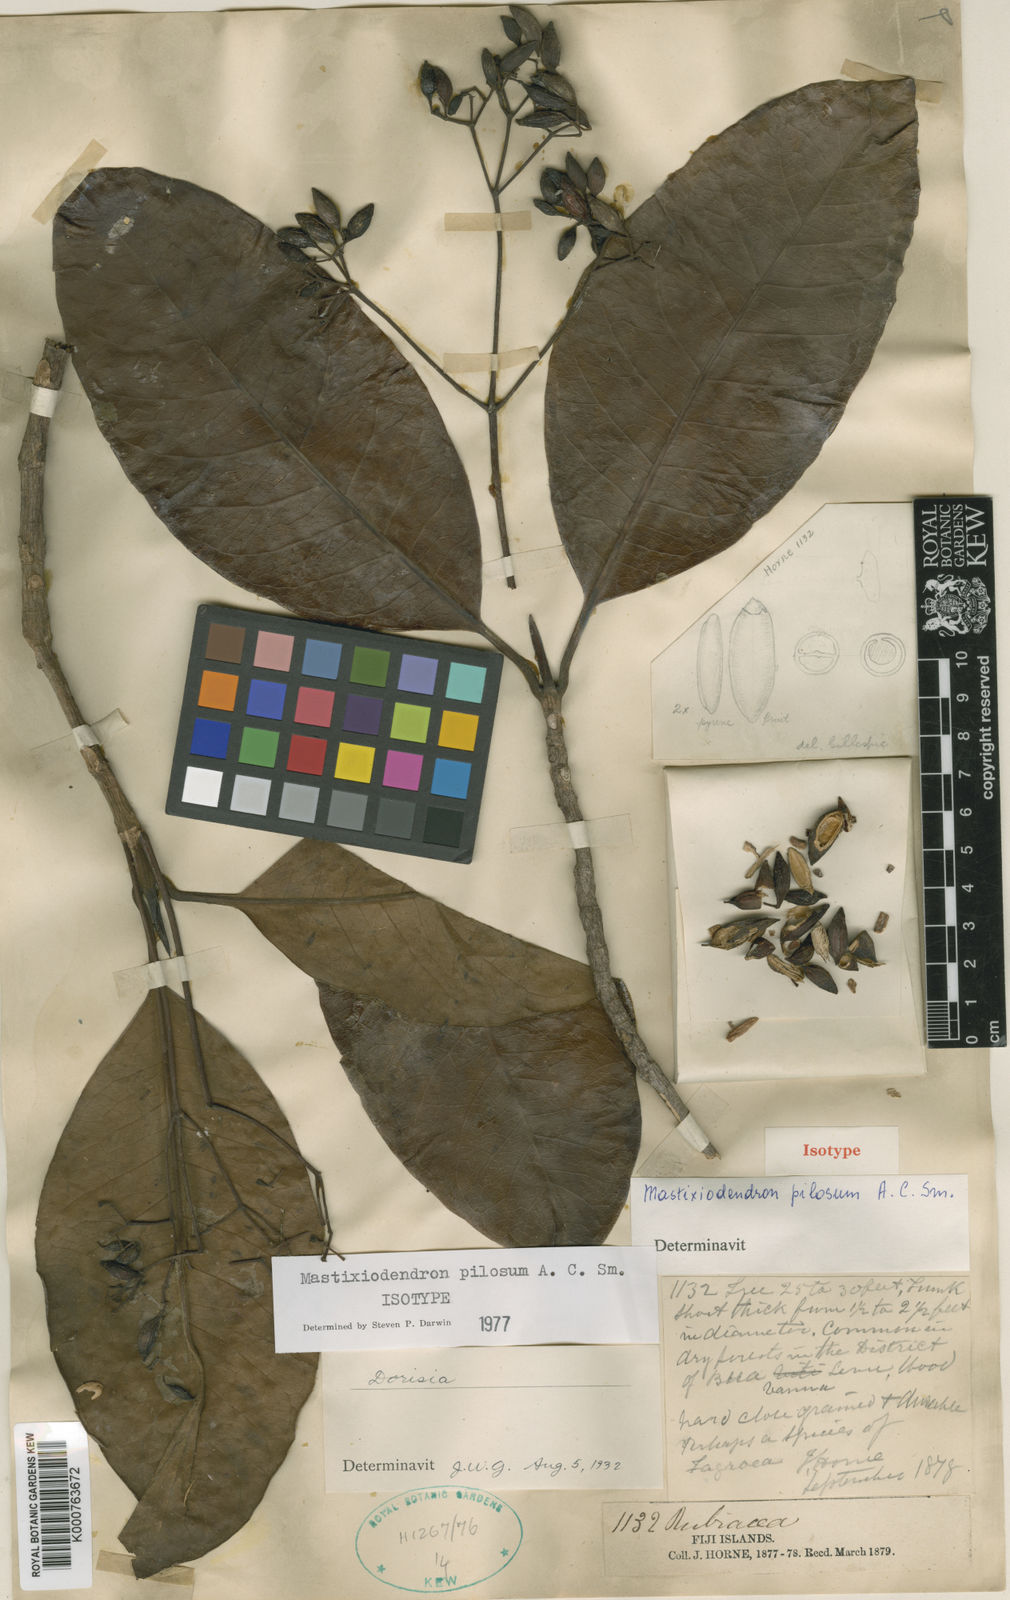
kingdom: Plantae
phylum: Tracheophyta
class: Magnoliopsida
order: Gentianales
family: Rubiaceae
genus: Mastixiodendron
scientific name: Mastixiodendron pilosum
